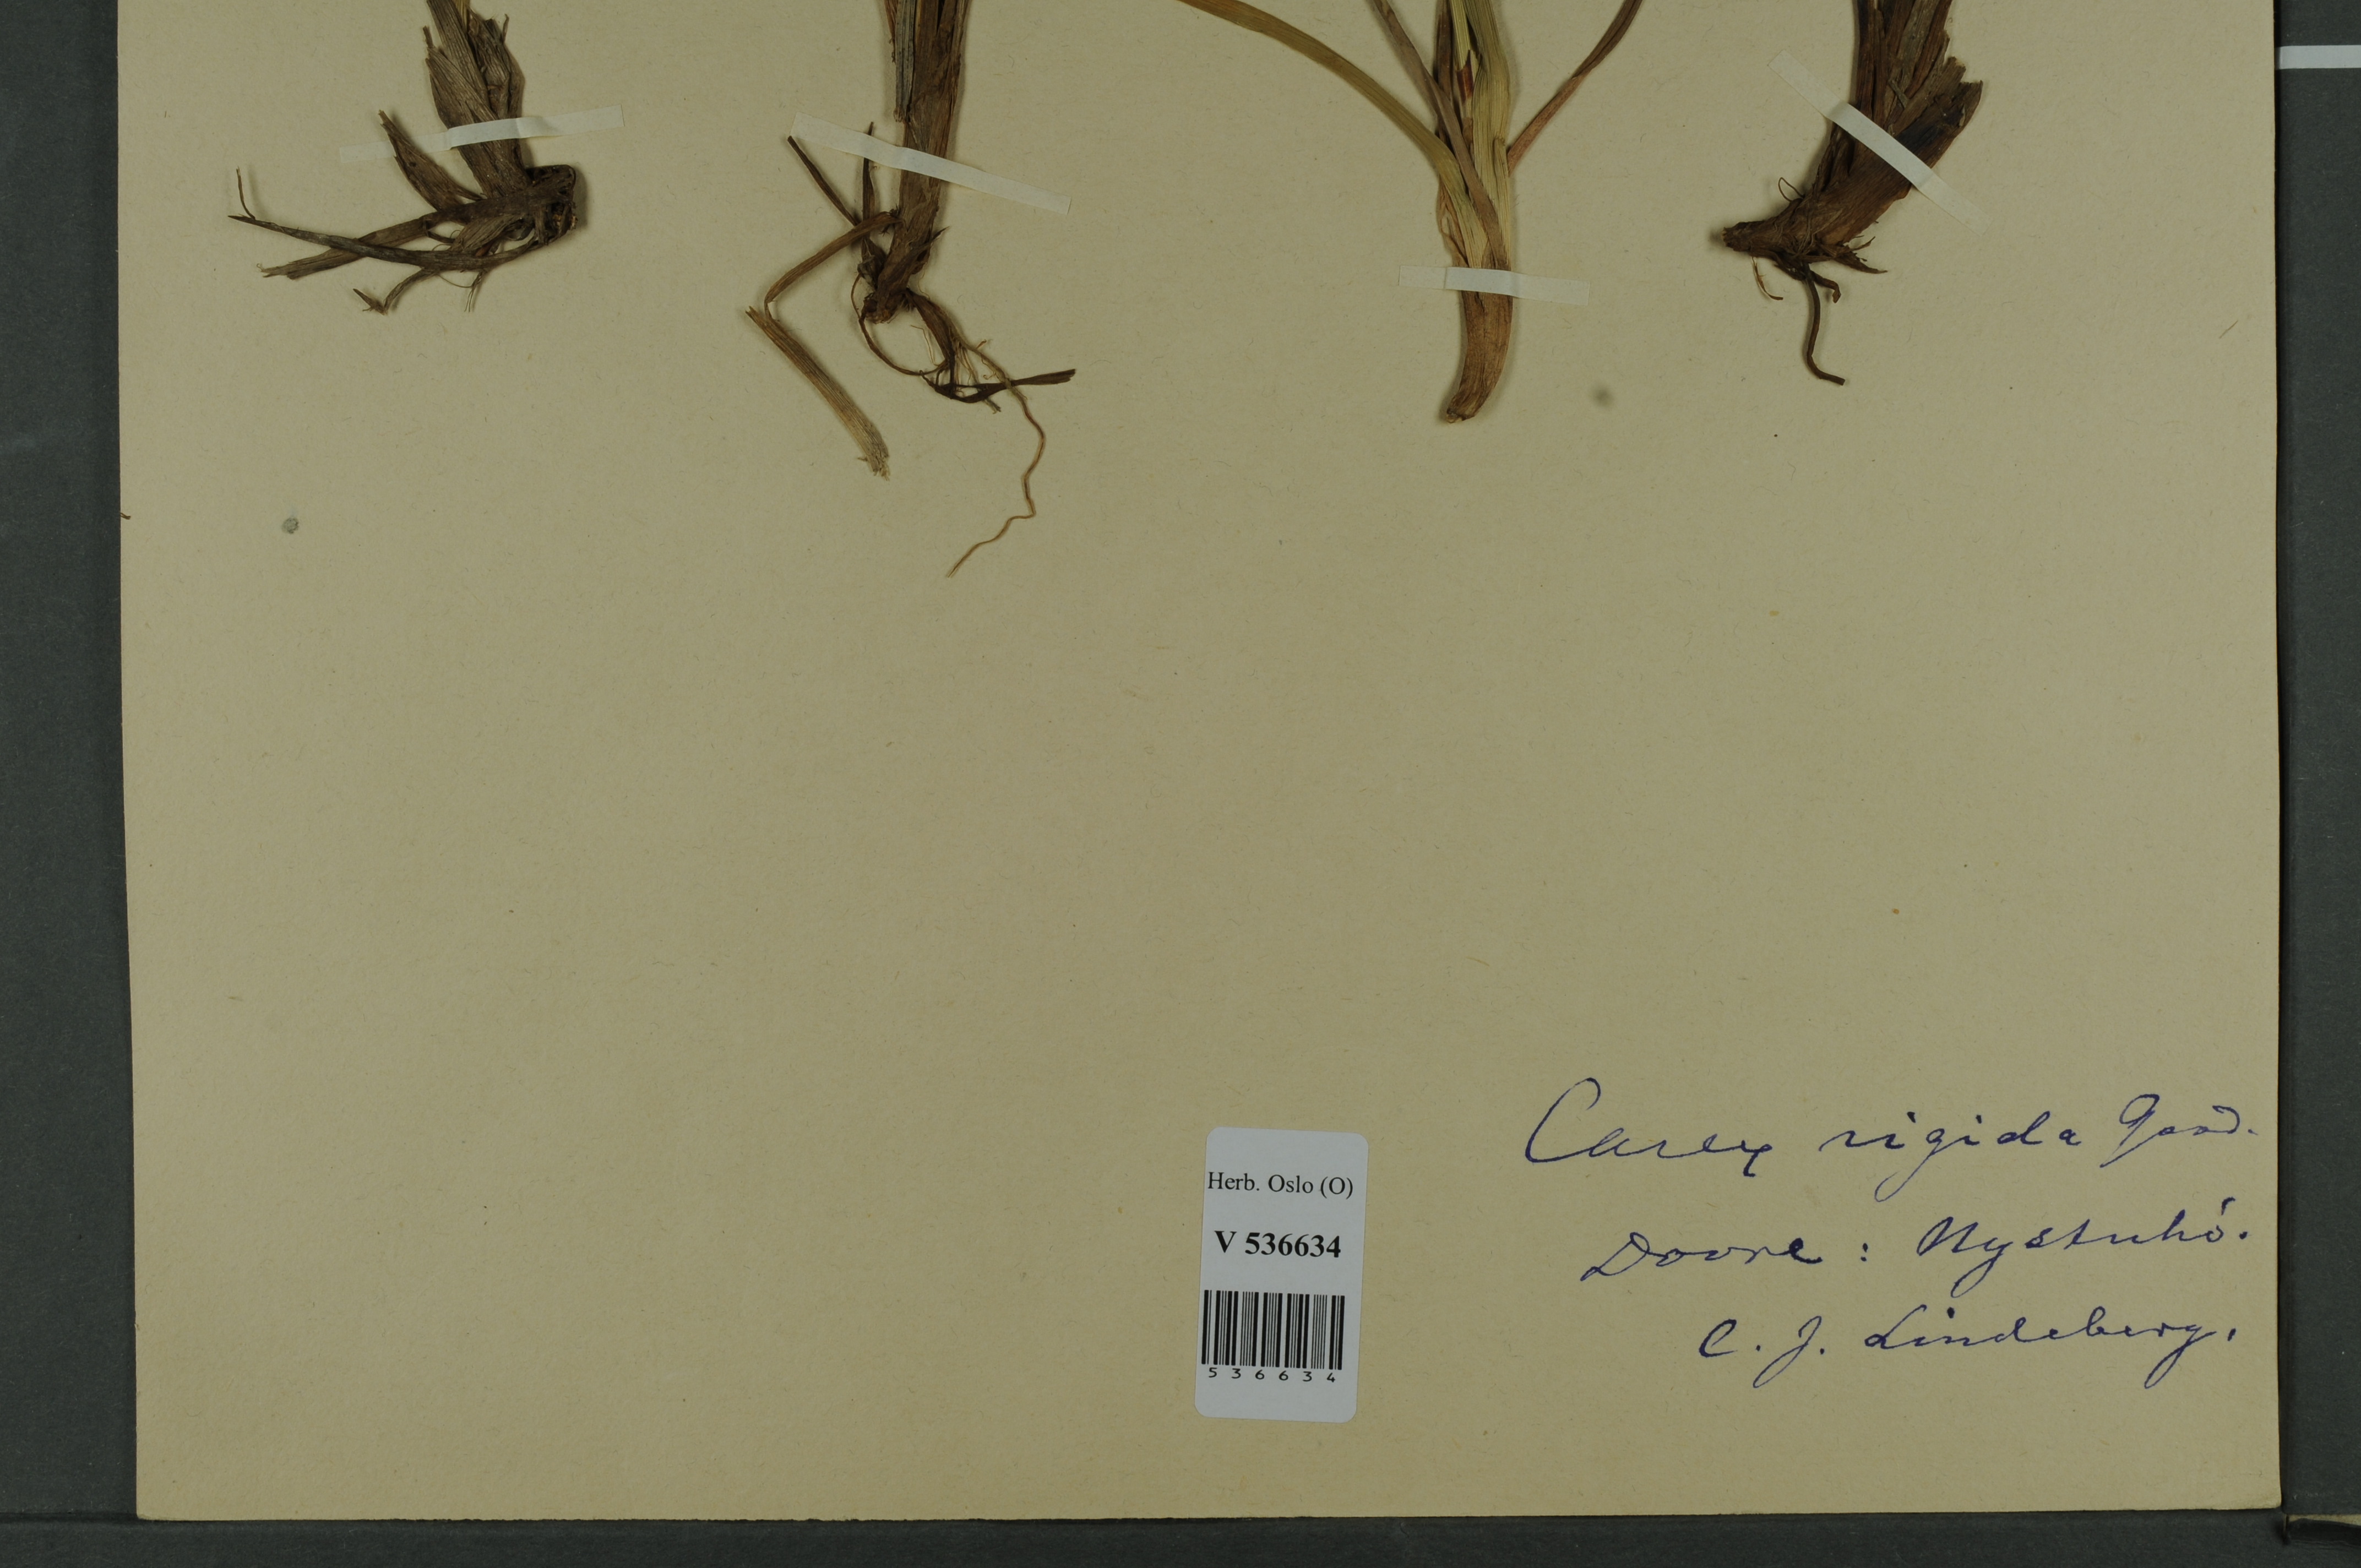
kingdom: Plantae
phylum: Tracheophyta
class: Liliopsida
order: Poales
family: Cyperaceae
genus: Carex
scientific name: Carex dacica
